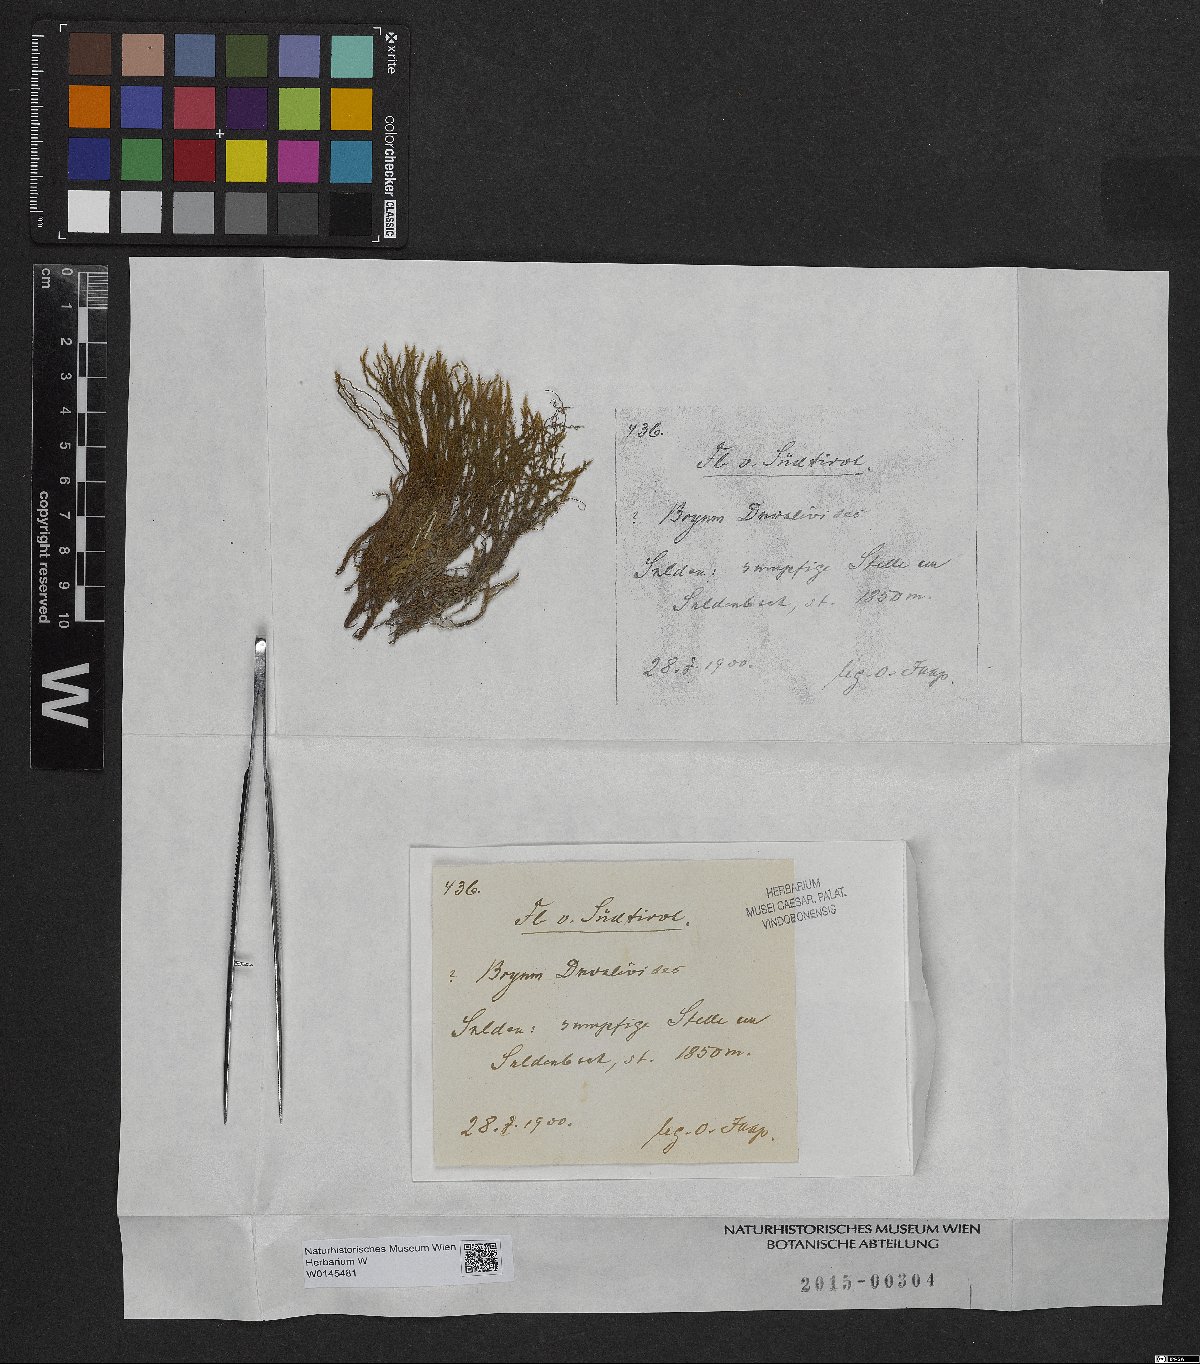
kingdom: Plantae
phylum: Bryophyta
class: Bryopsida
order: Bryales
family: Bryaceae
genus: Ptychostomum
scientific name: Ptychostomum pseudotriquetrum
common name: Long-leaved thread moss
